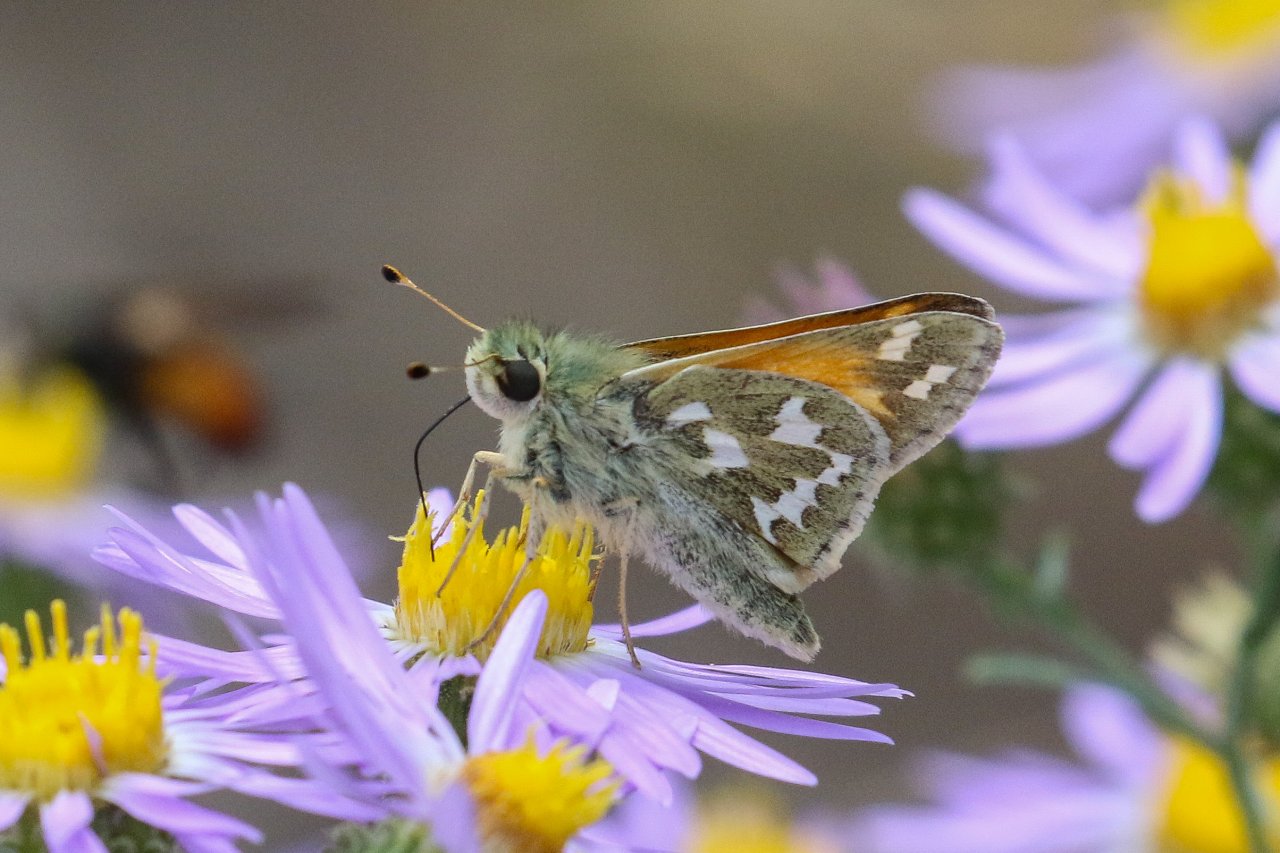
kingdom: Animalia
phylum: Arthropoda
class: Insecta
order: Lepidoptera
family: Hesperiidae
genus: Hesperia
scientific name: Hesperia comma
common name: Western Branded Skipper
